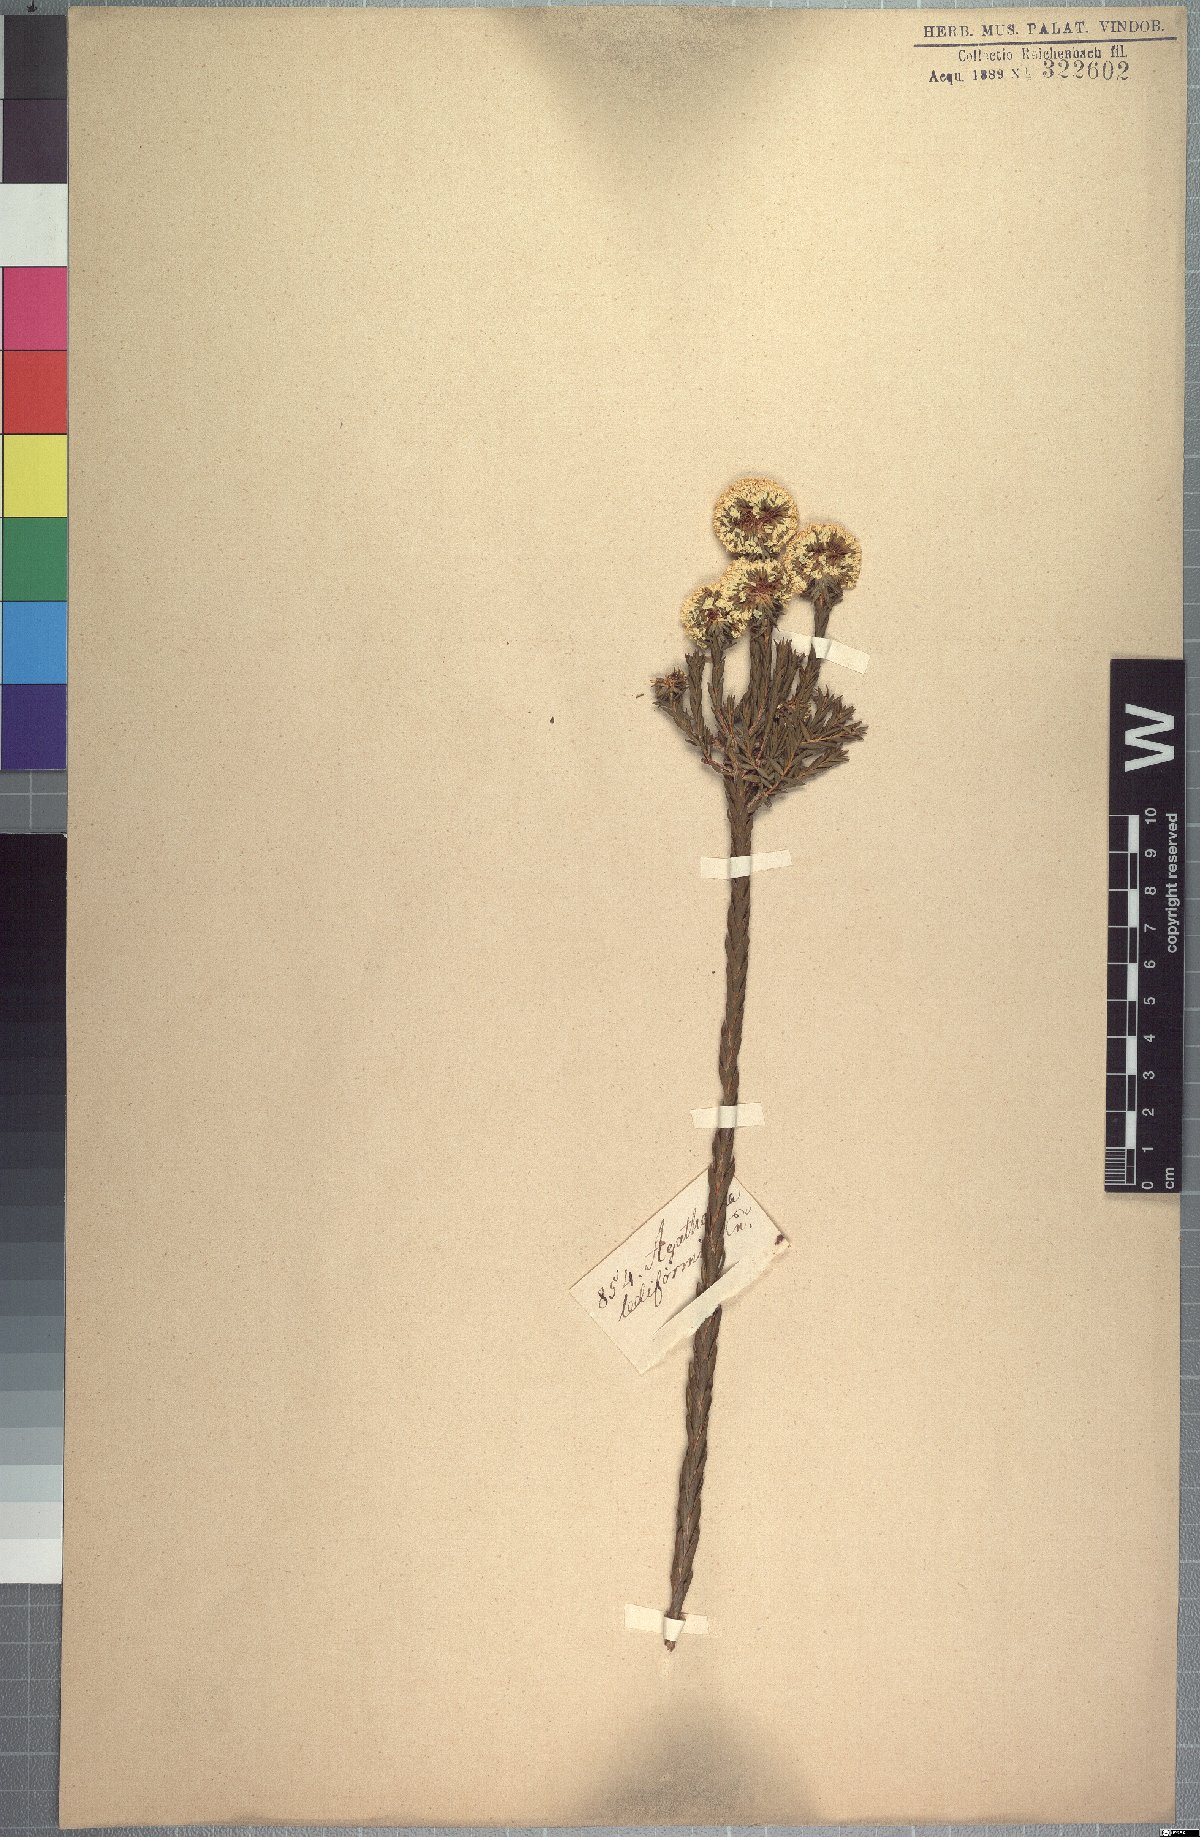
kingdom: Plantae
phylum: Tracheophyta
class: Magnoliopsida
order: Sapindales
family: Rutaceae
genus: Agathosma
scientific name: Agathosma bifida
